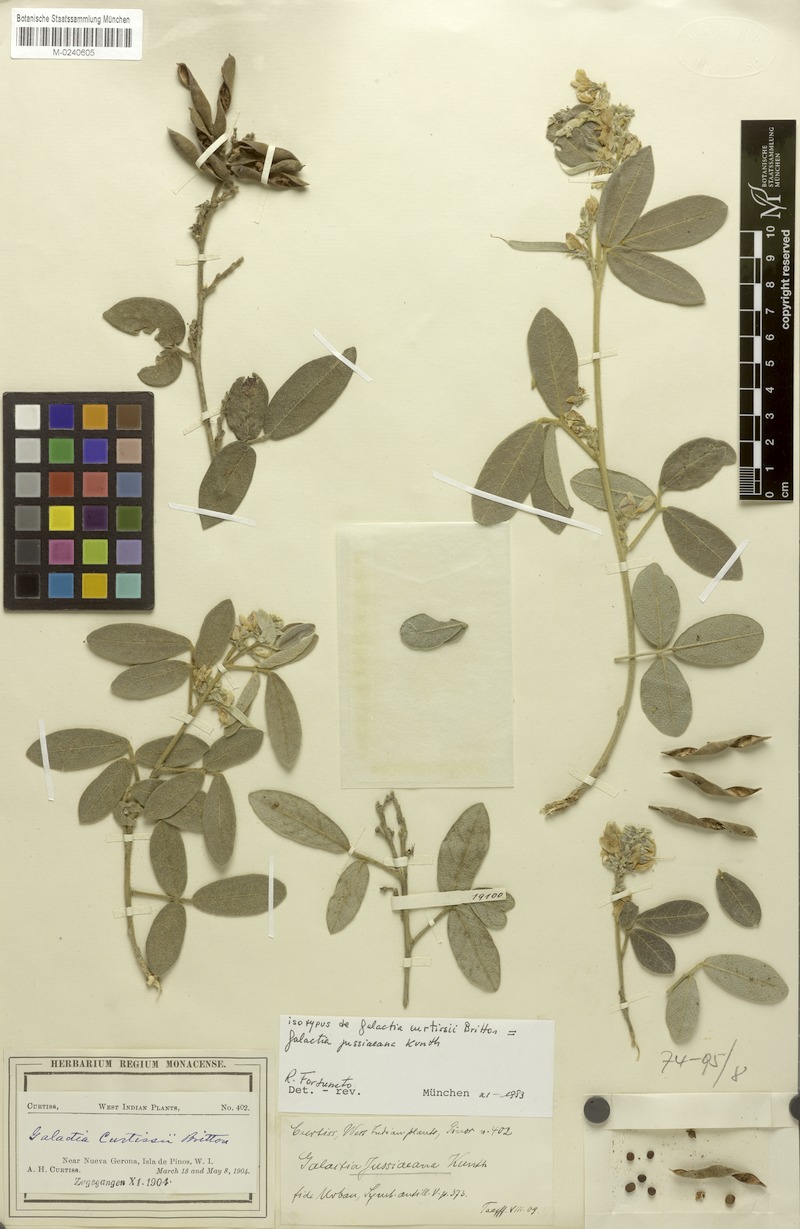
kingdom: Plantae
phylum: Tracheophyta
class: Magnoliopsida
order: Fabales
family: Fabaceae
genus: Galactia
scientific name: Galactia jussiaeana
